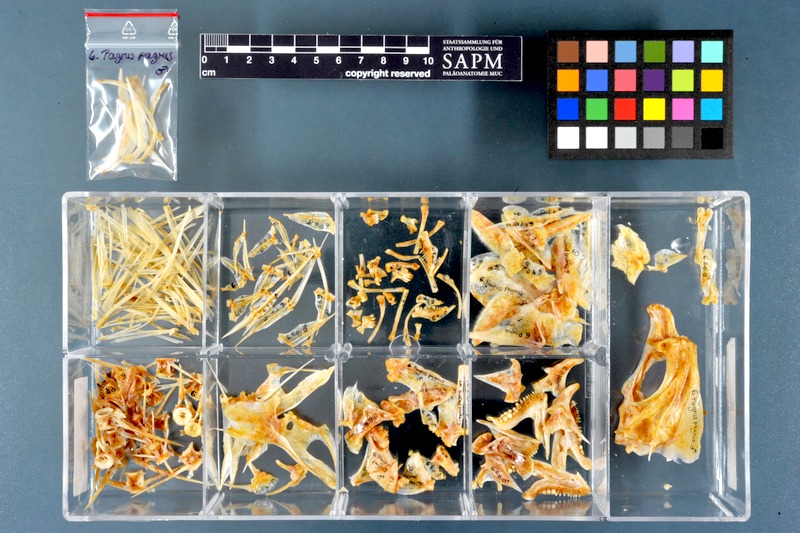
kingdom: Animalia
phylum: Chordata
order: Perciformes
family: Sparidae
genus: Pagrus
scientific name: Pagrus pagrus
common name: Red porgy
